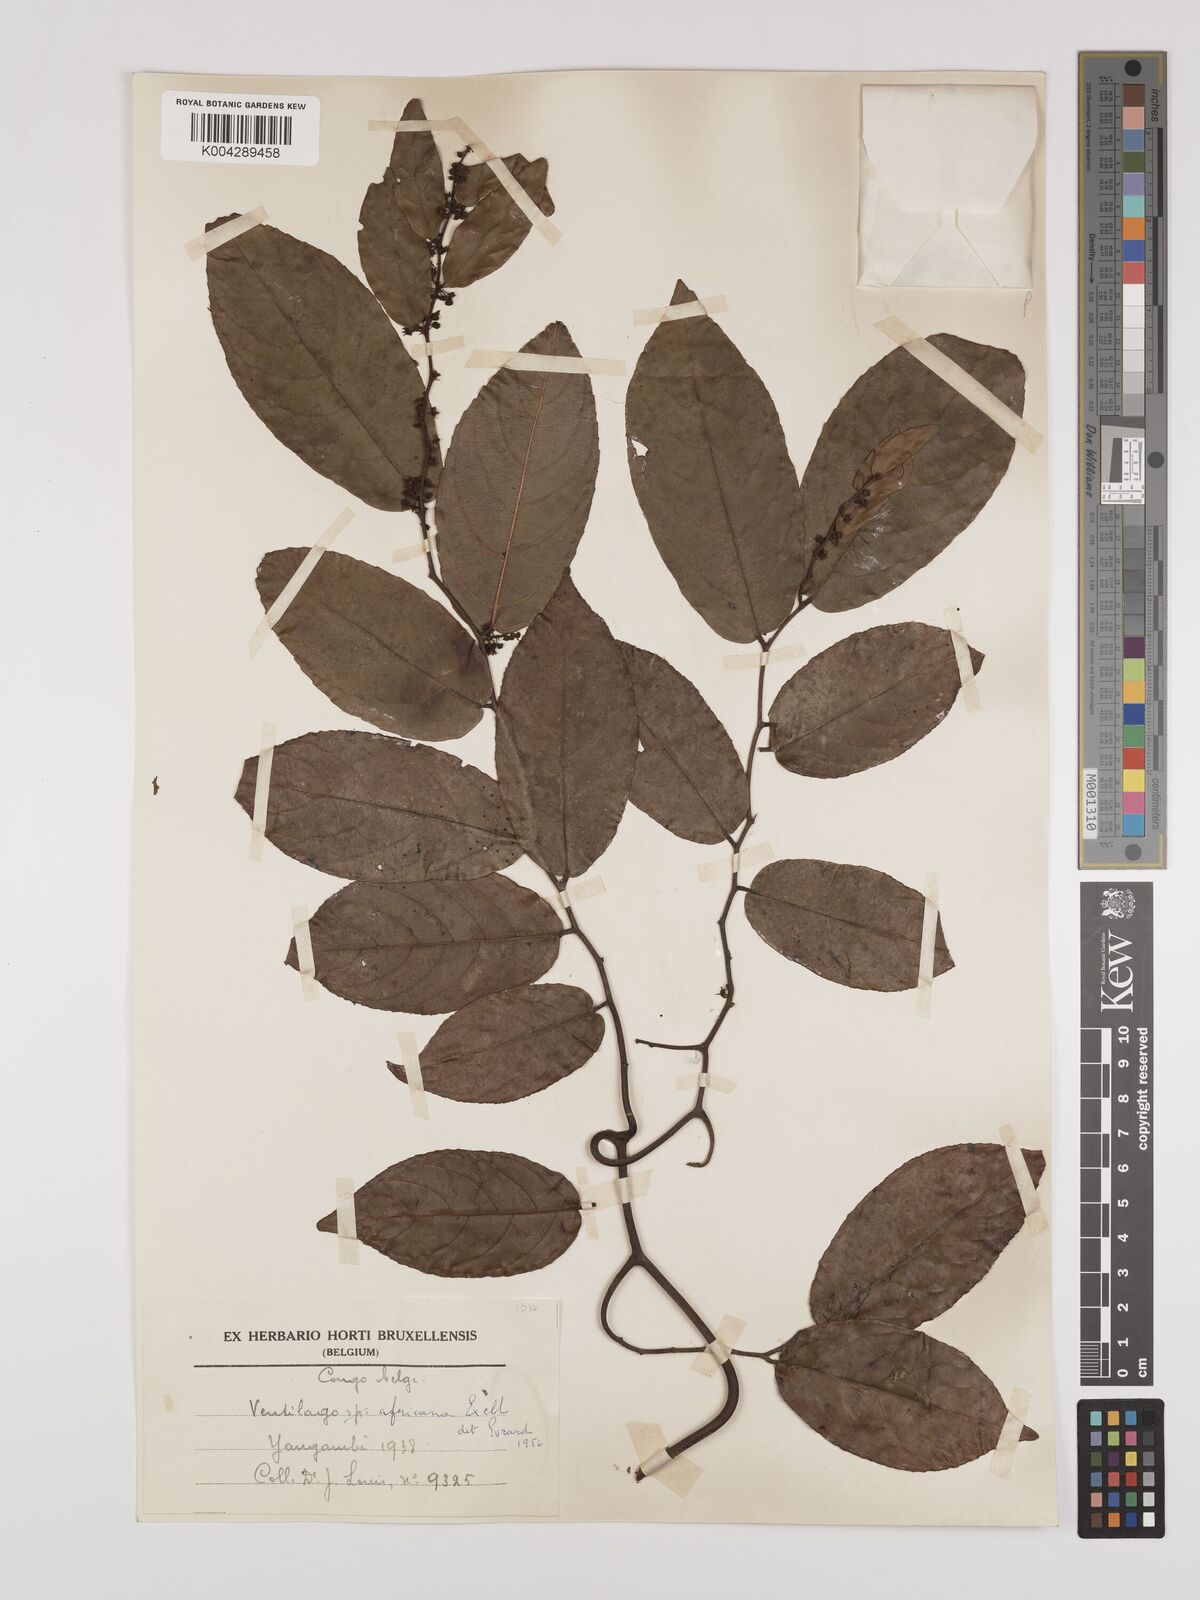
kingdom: Plantae
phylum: Tracheophyta
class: Magnoliopsida
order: Rosales
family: Rhamnaceae
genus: Ventilago
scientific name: Ventilago africana
